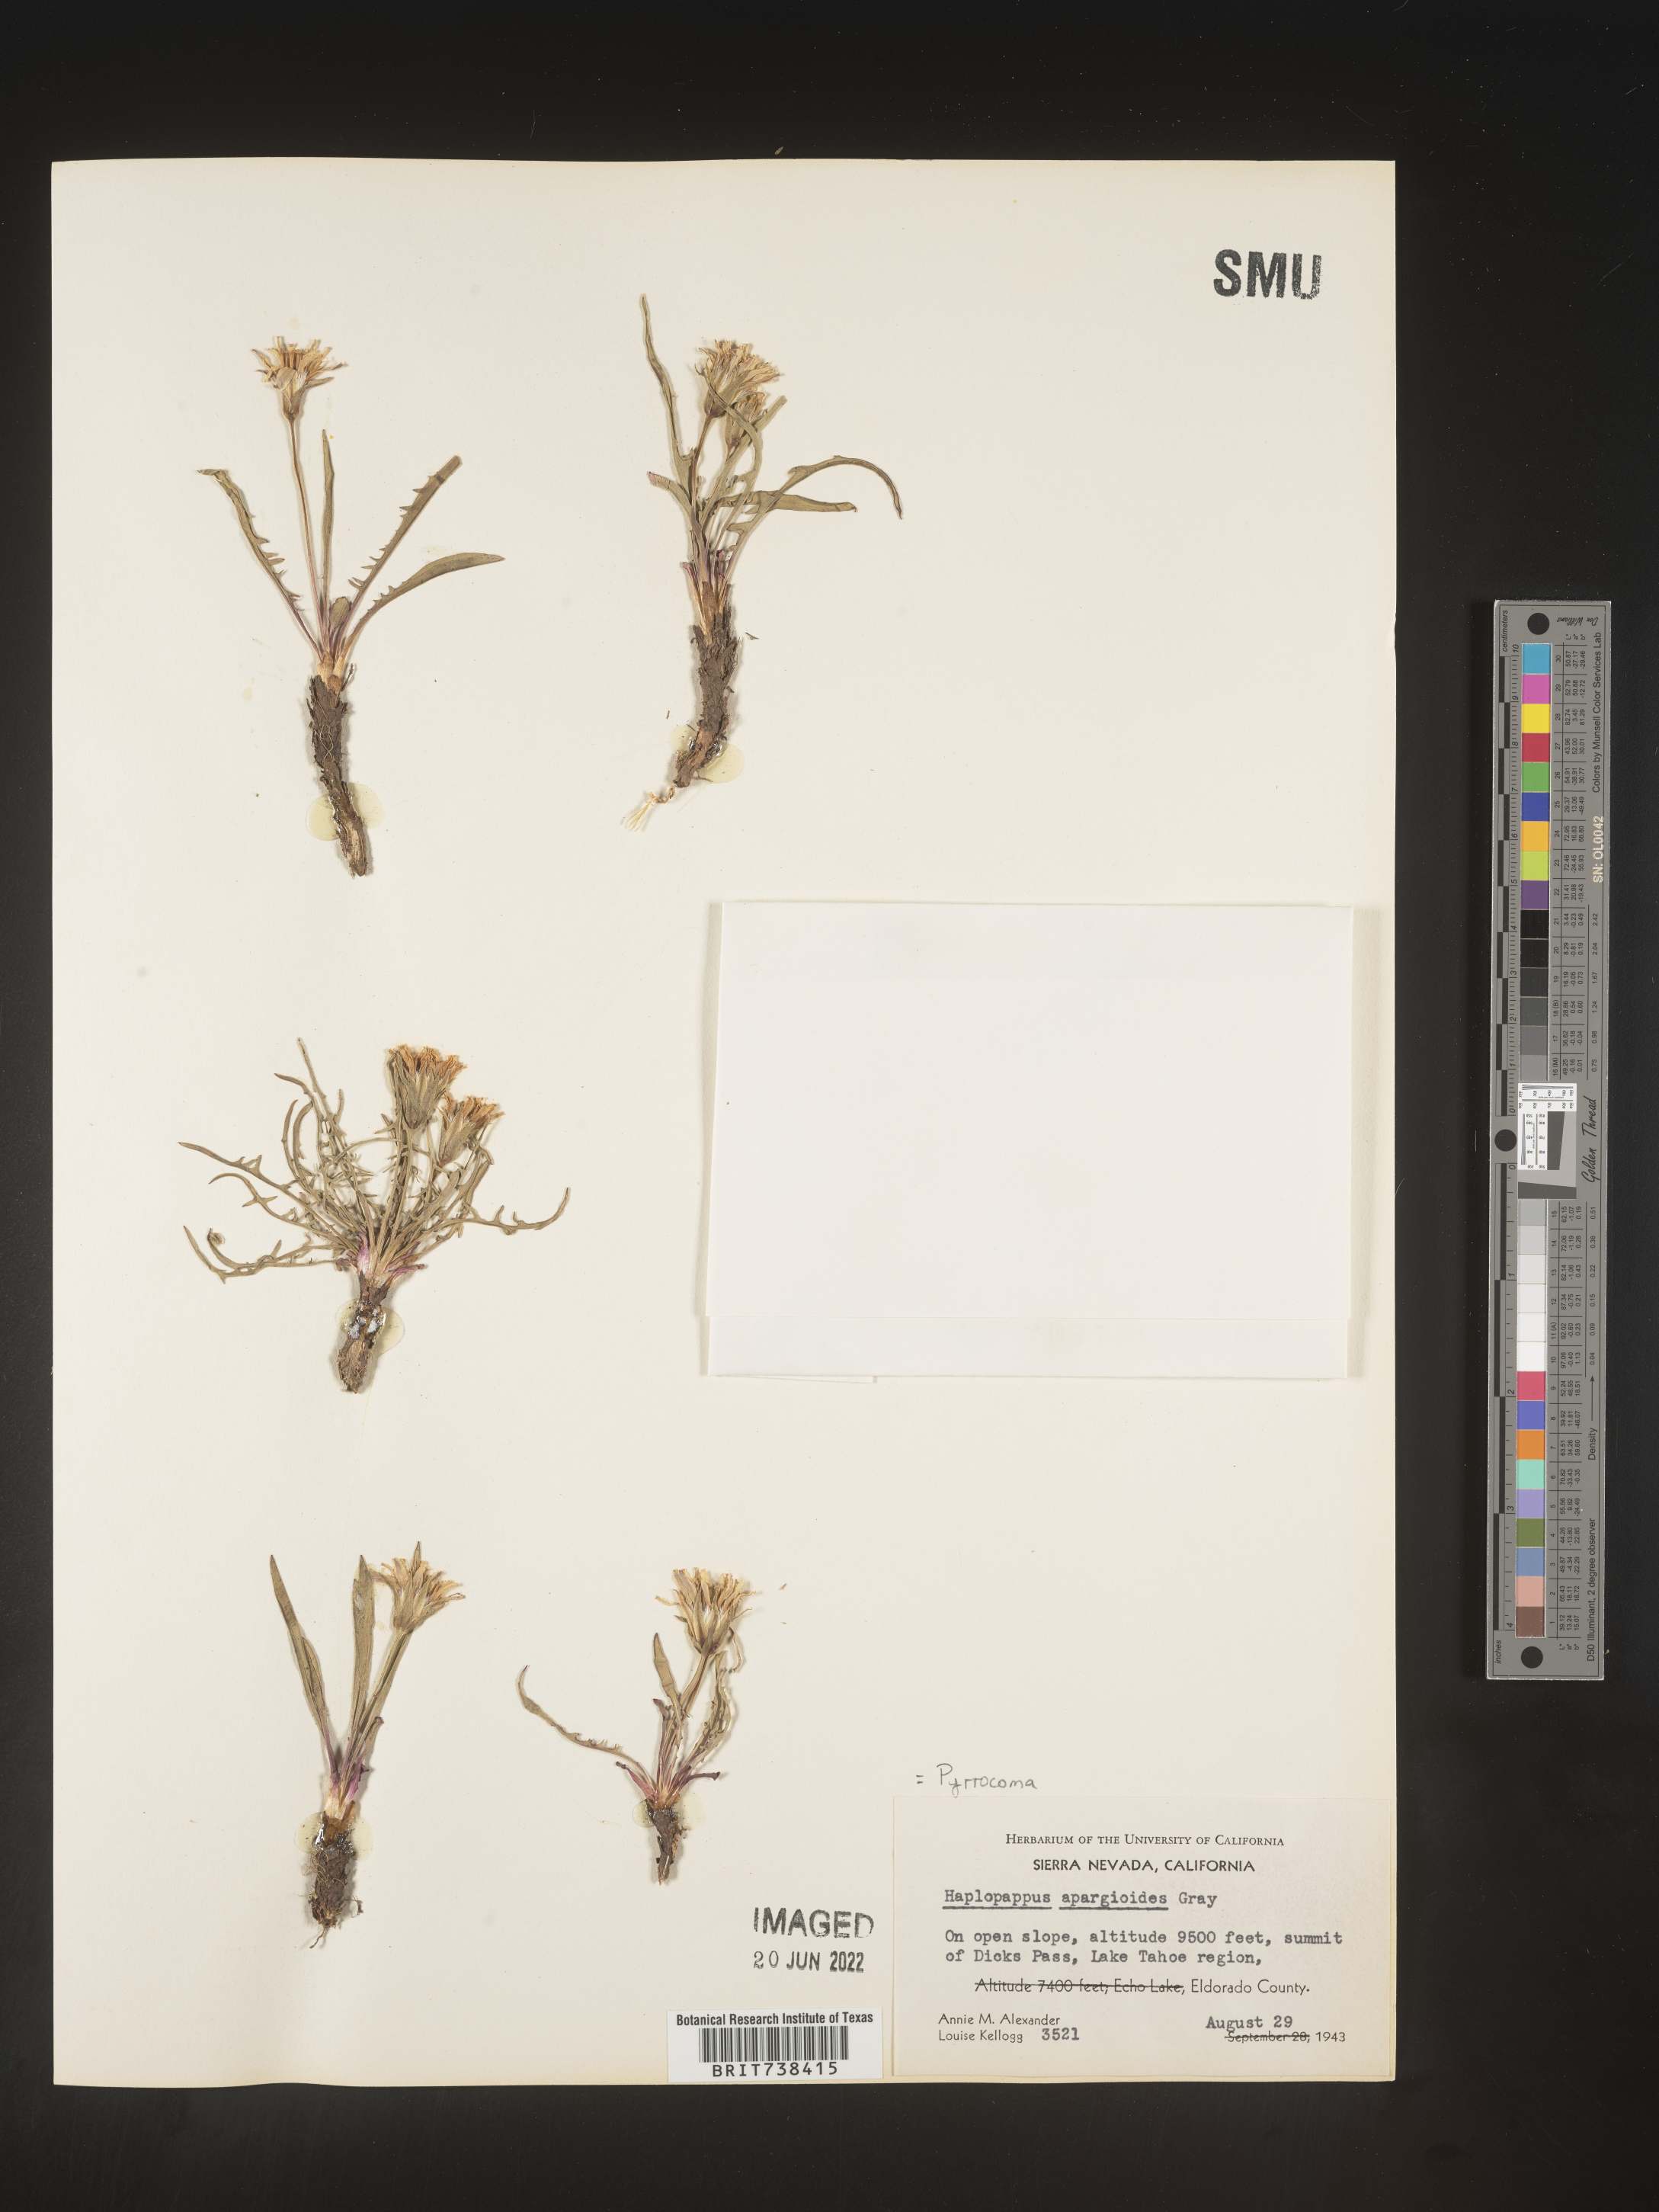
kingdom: Plantae
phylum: Tracheophyta
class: Magnoliopsida
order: Asterales
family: Asteraceae
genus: Pyrrocoma
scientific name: Pyrrocoma apargioides
